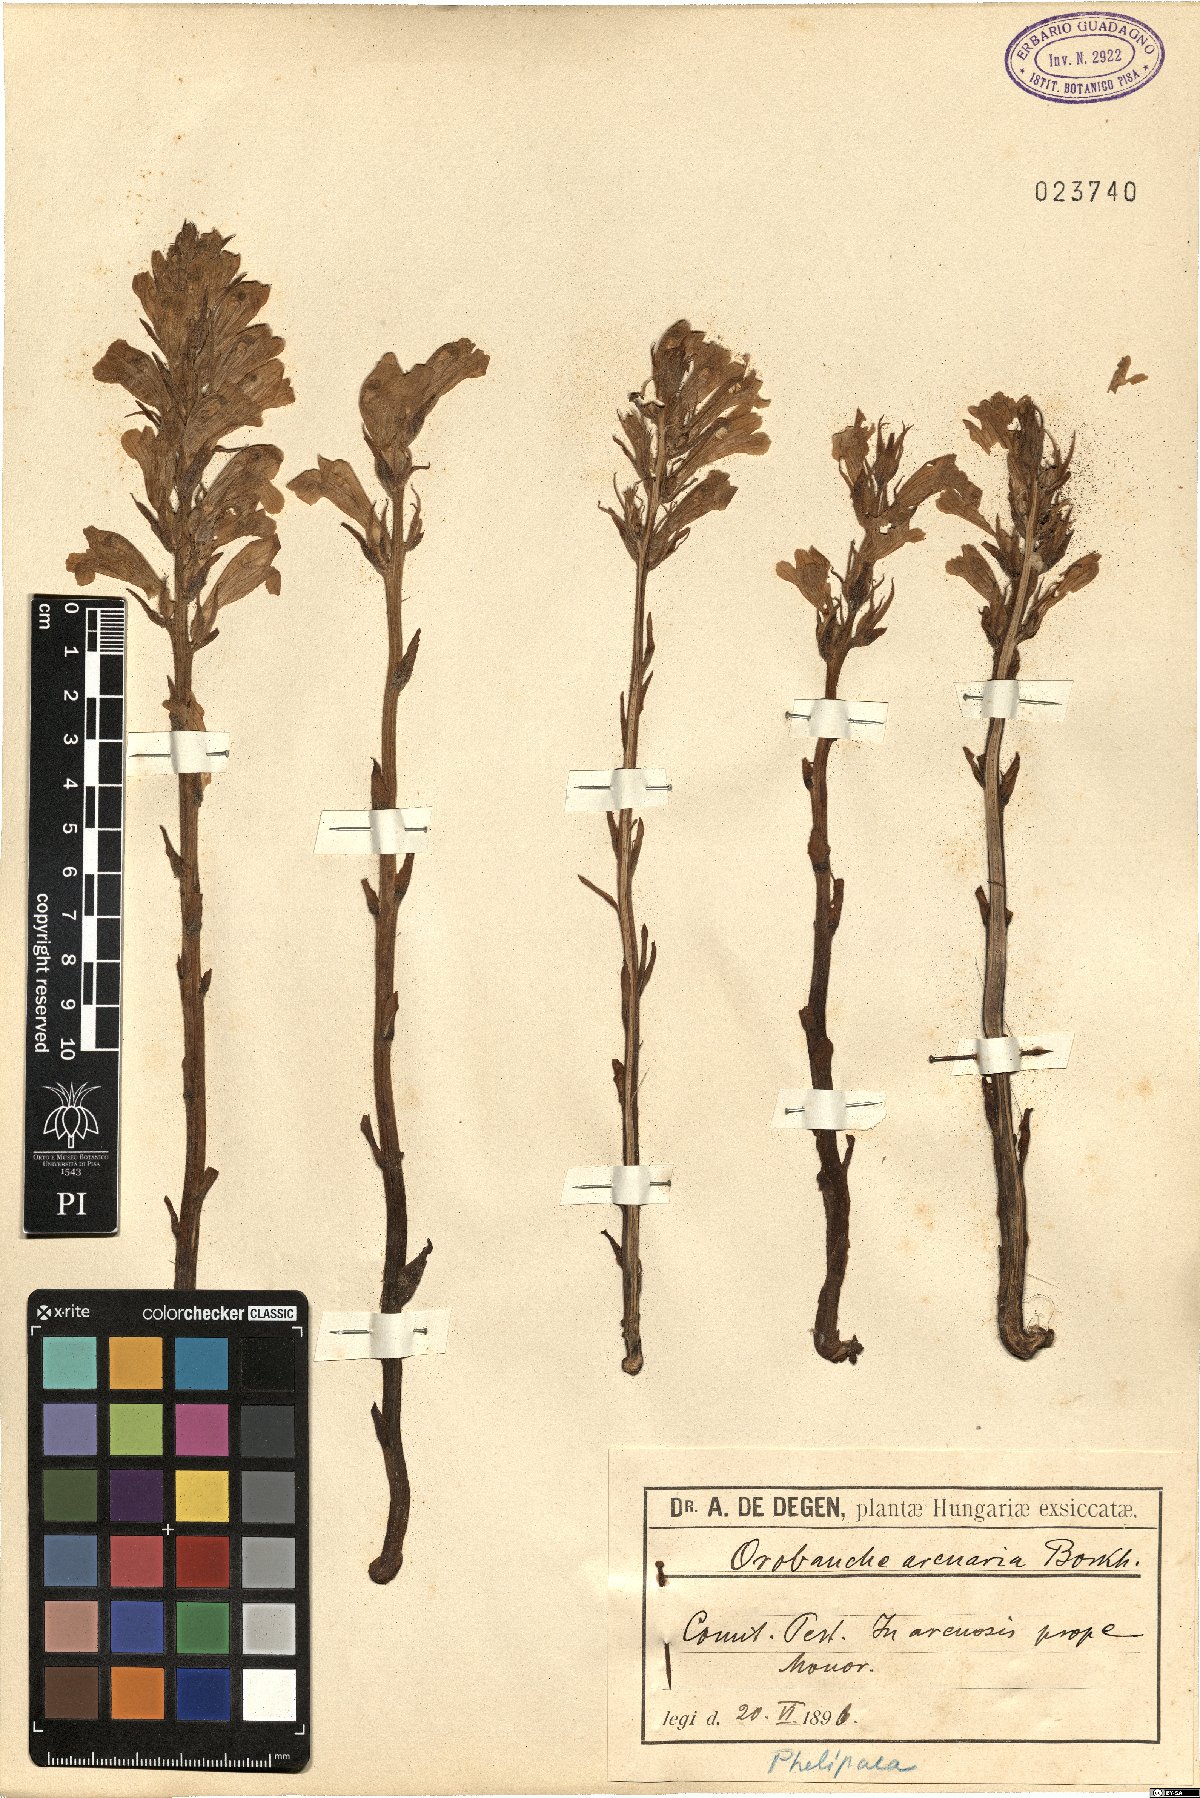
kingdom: Plantae
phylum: Tracheophyta
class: Magnoliopsida
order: Lamiales
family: Orobanchaceae
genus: Phelipanche
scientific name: Phelipanche arenaria
